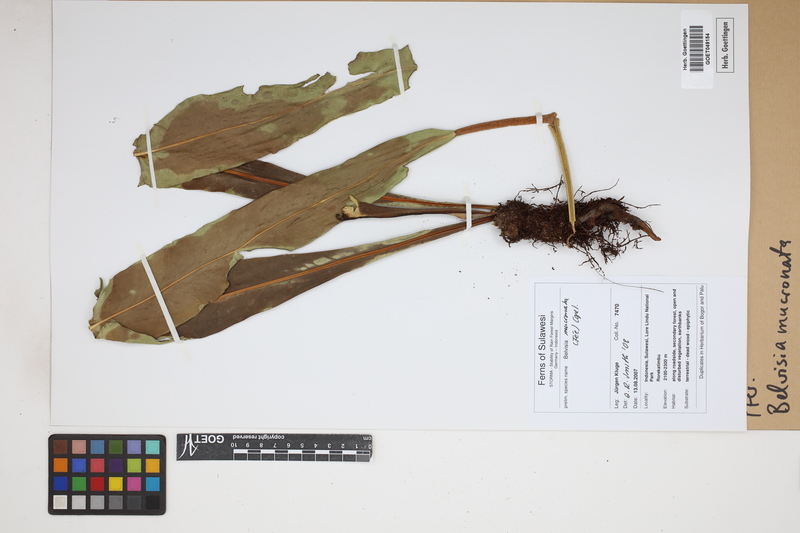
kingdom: Plantae
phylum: Tracheophyta
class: Polypodiopsida
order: Polypodiales
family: Polypodiaceae
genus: Lepisorus
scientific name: Lepisorus mucronatus
